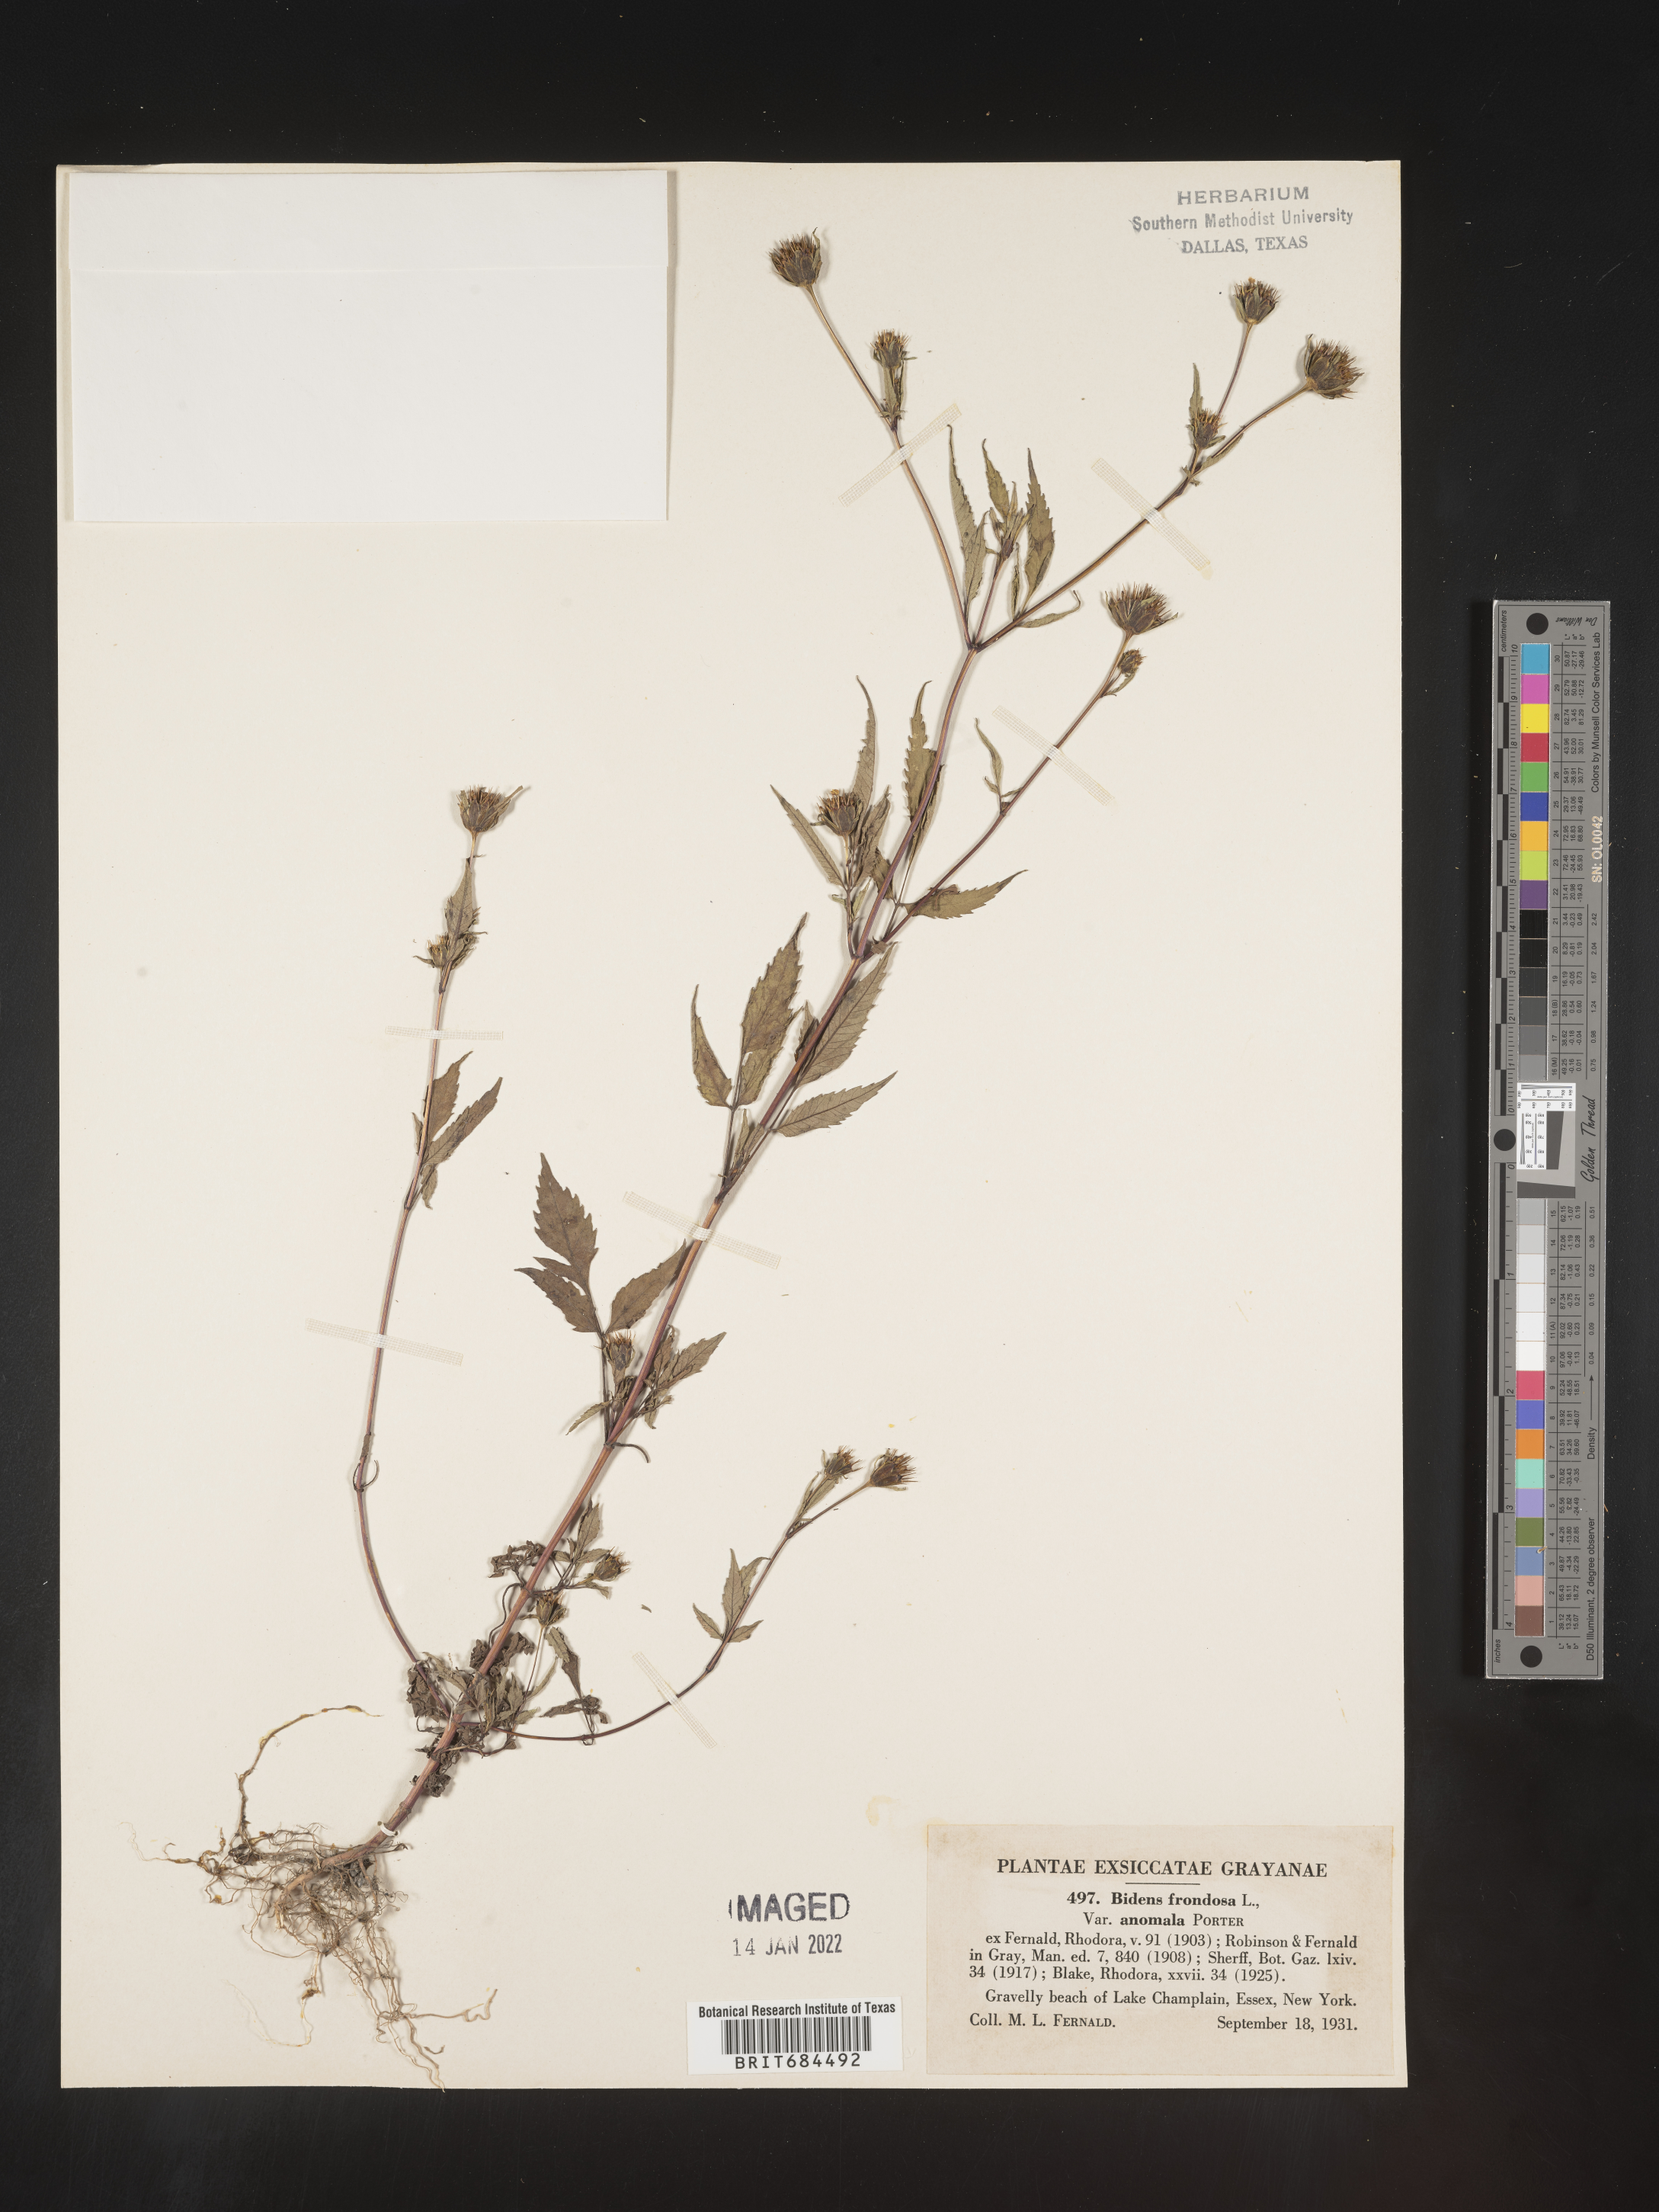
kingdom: Plantae
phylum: Tracheophyta
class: Magnoliopsida
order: Asterales
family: Asteraceae
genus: Bidens
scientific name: Bidens frondosa
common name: Beggarticks
